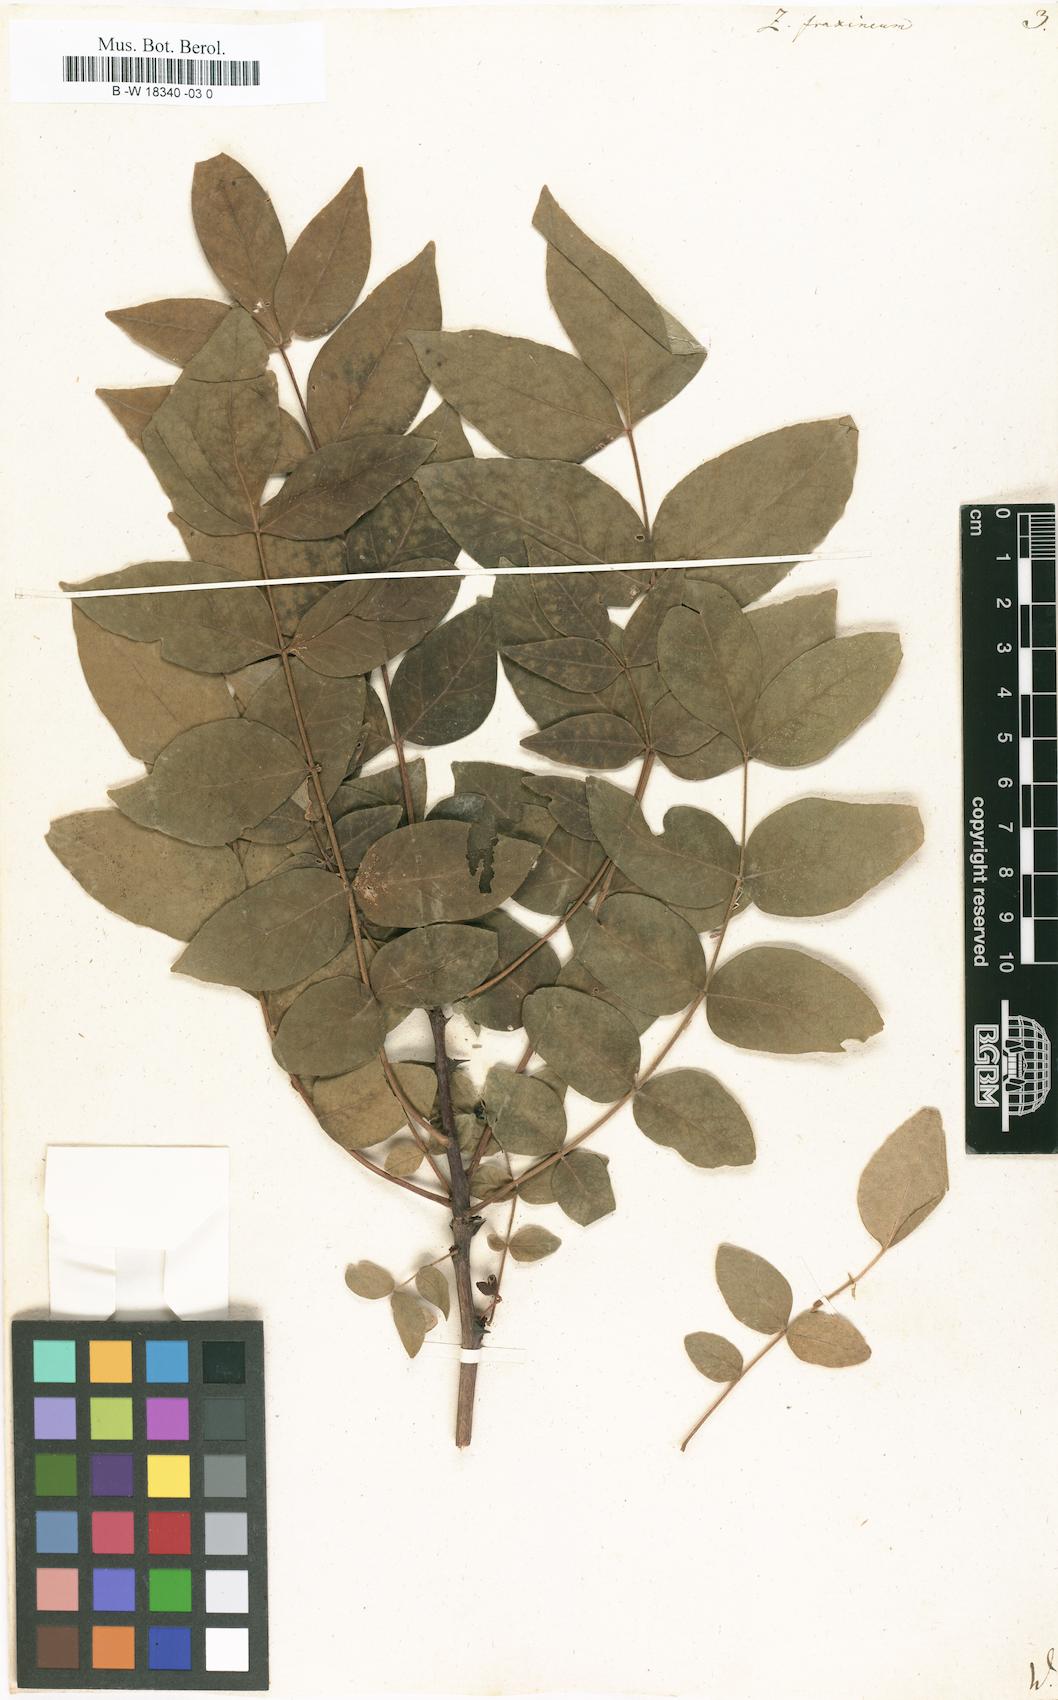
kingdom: Plantae
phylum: Tracheophyta
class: Magnoliopsida
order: Sapindales
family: Rutaceae
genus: Zanthoxylum
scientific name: Zanthoxylum americanum
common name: Northern prickly-ash
